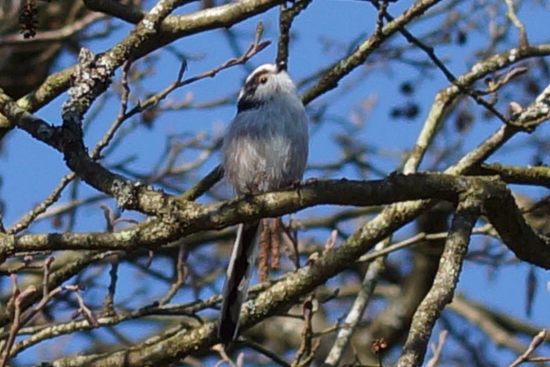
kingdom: Animalia
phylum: Chordata
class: Aves
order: Passeriformes
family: Aegithalidae
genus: Aegithalos
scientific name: Aegithalos caudatus
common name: Halemejse
